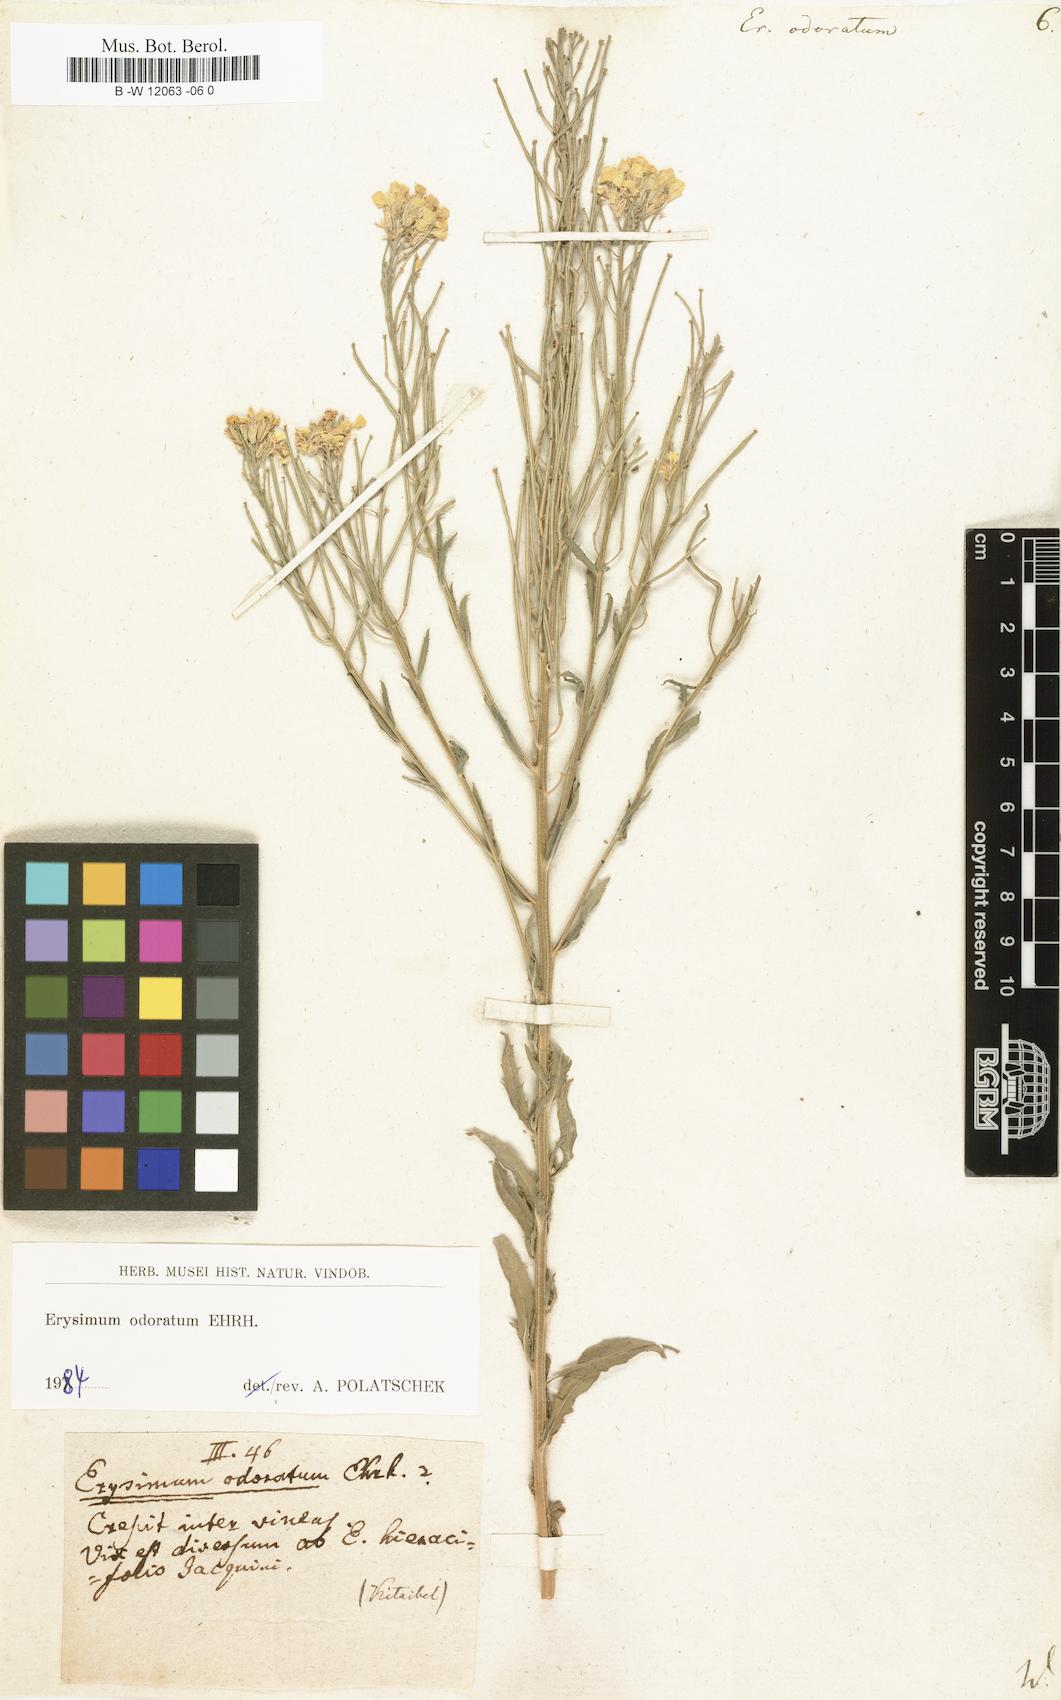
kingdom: Plantae
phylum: Tracheophyta
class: Magnoliopsida
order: Brassicales
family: Brassicaceae
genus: Erysimum
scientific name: Erysimum odoratum
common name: Smelly wallflower
